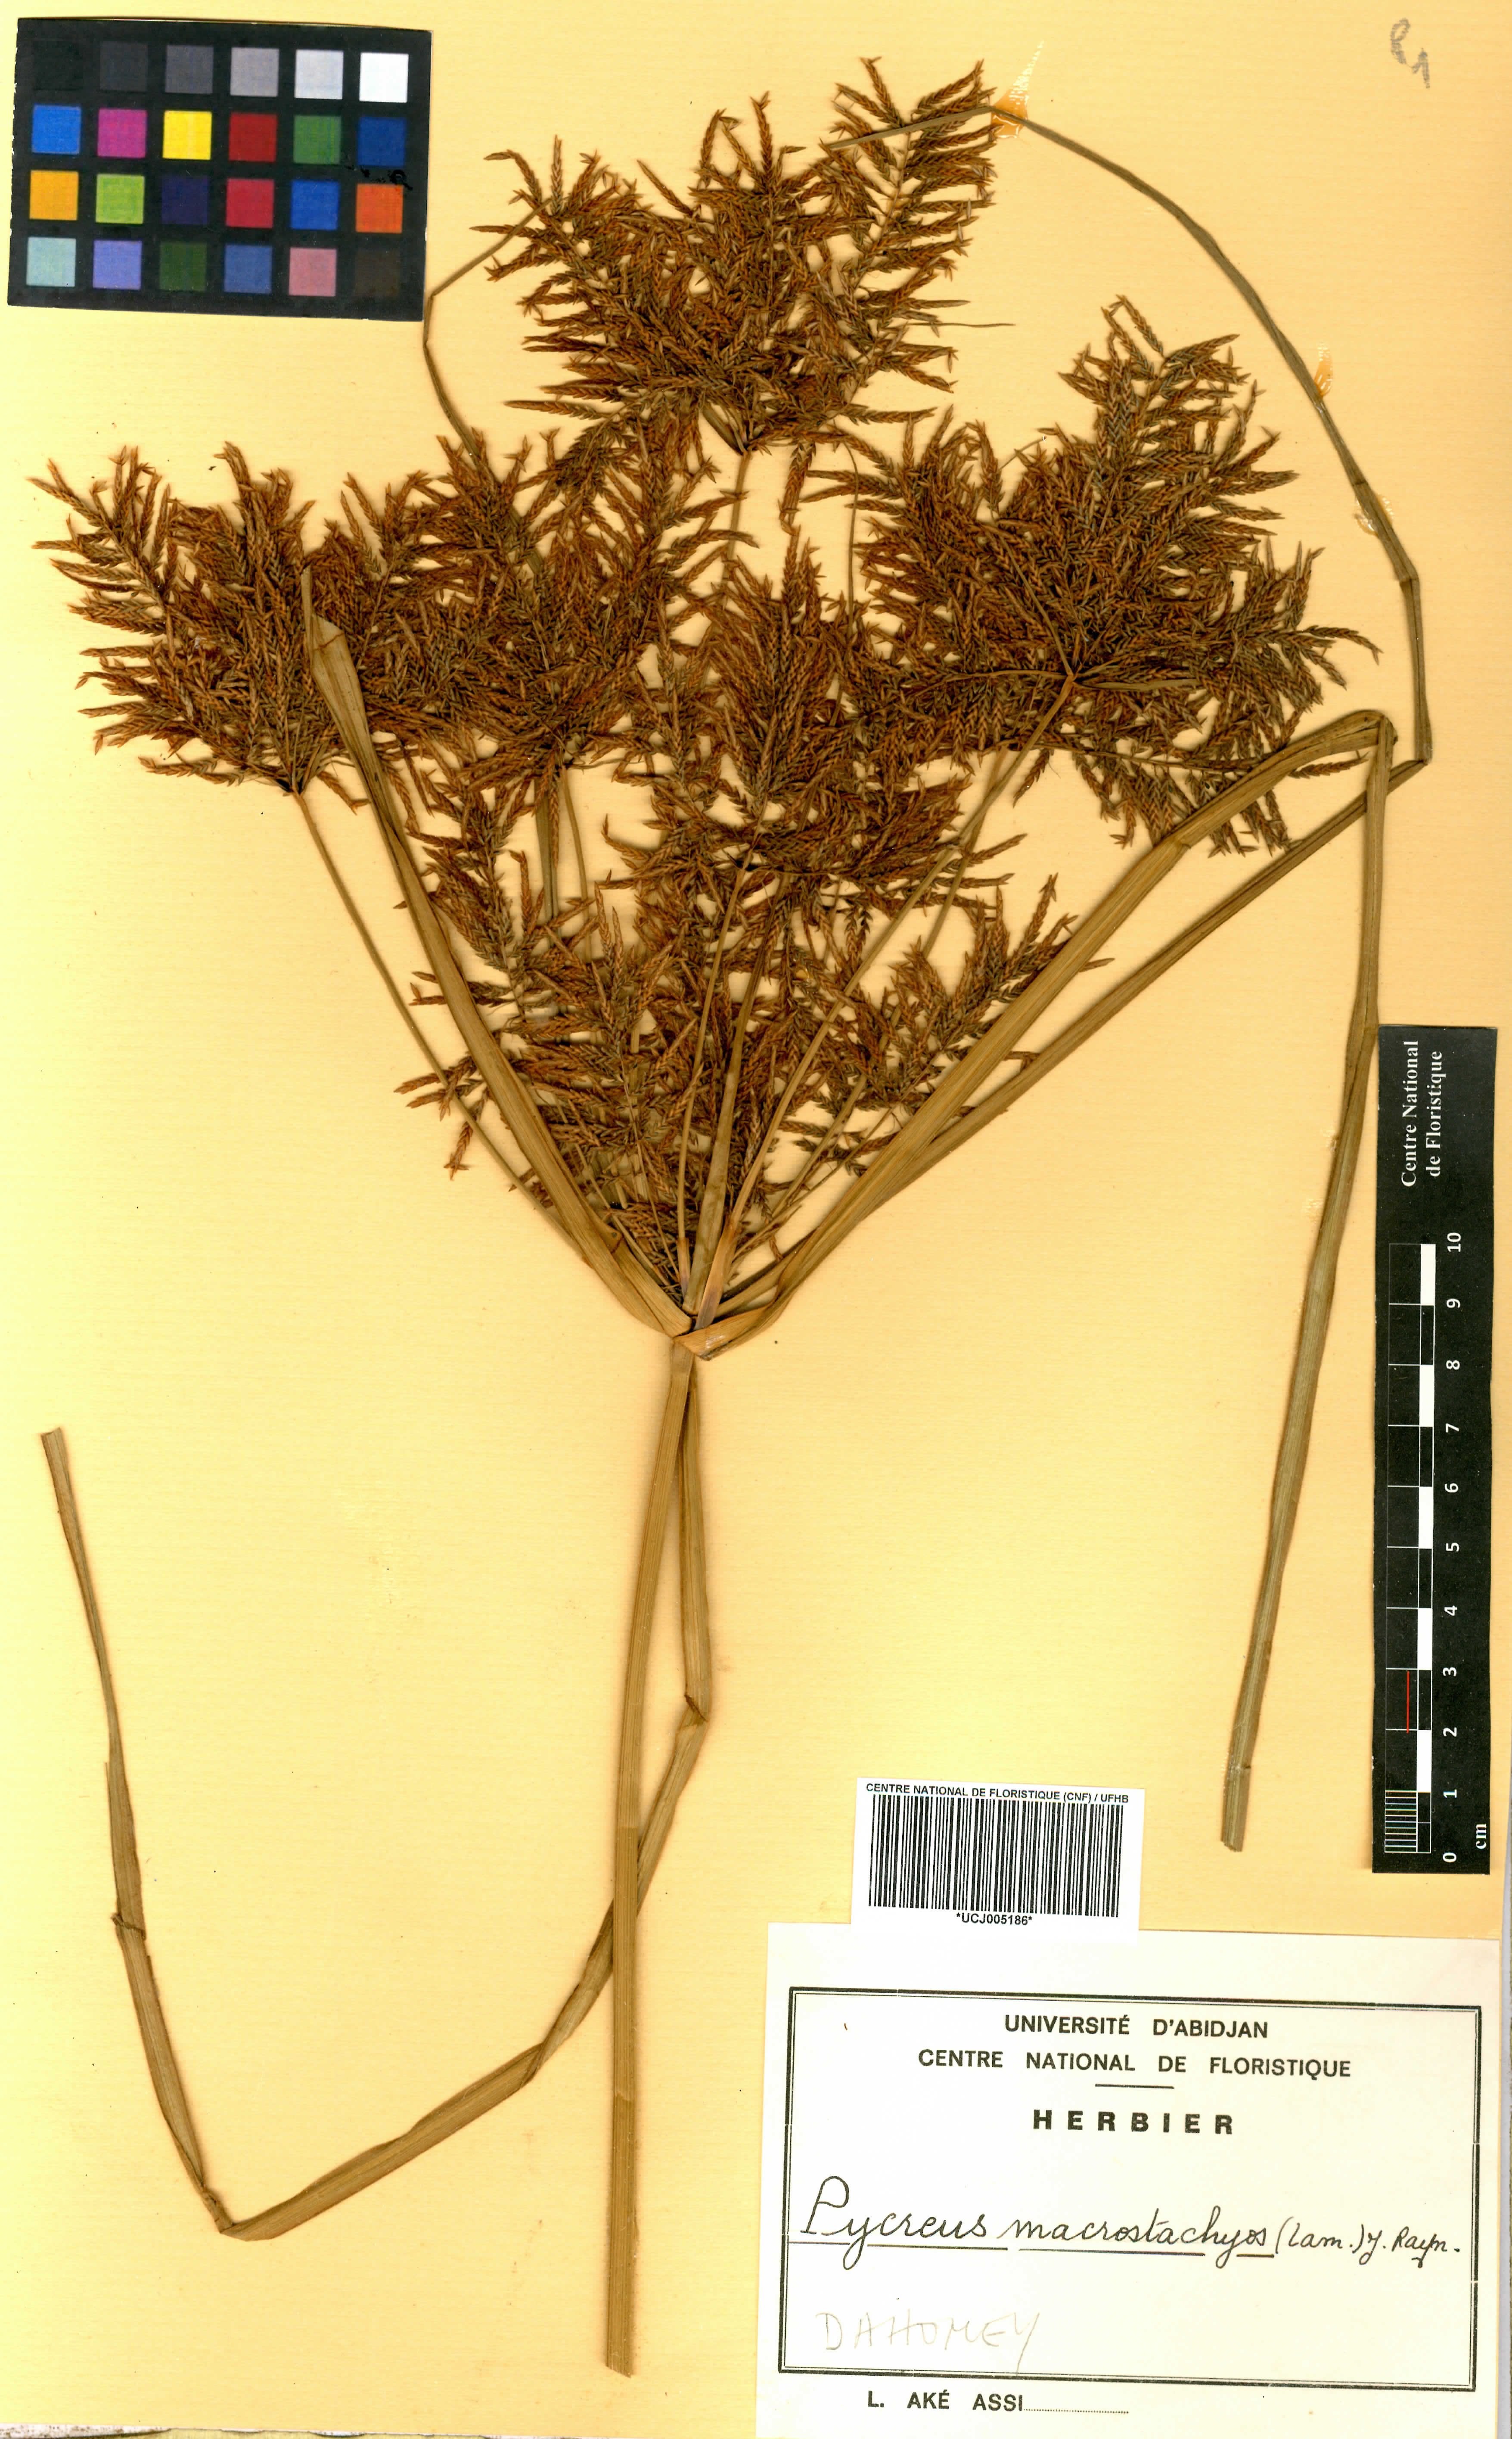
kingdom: Plantae
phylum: Tracheophyta
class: Liliopsida
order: Poales
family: Cyperaceae
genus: Cyperus
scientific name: Cyperus macrostachyos
